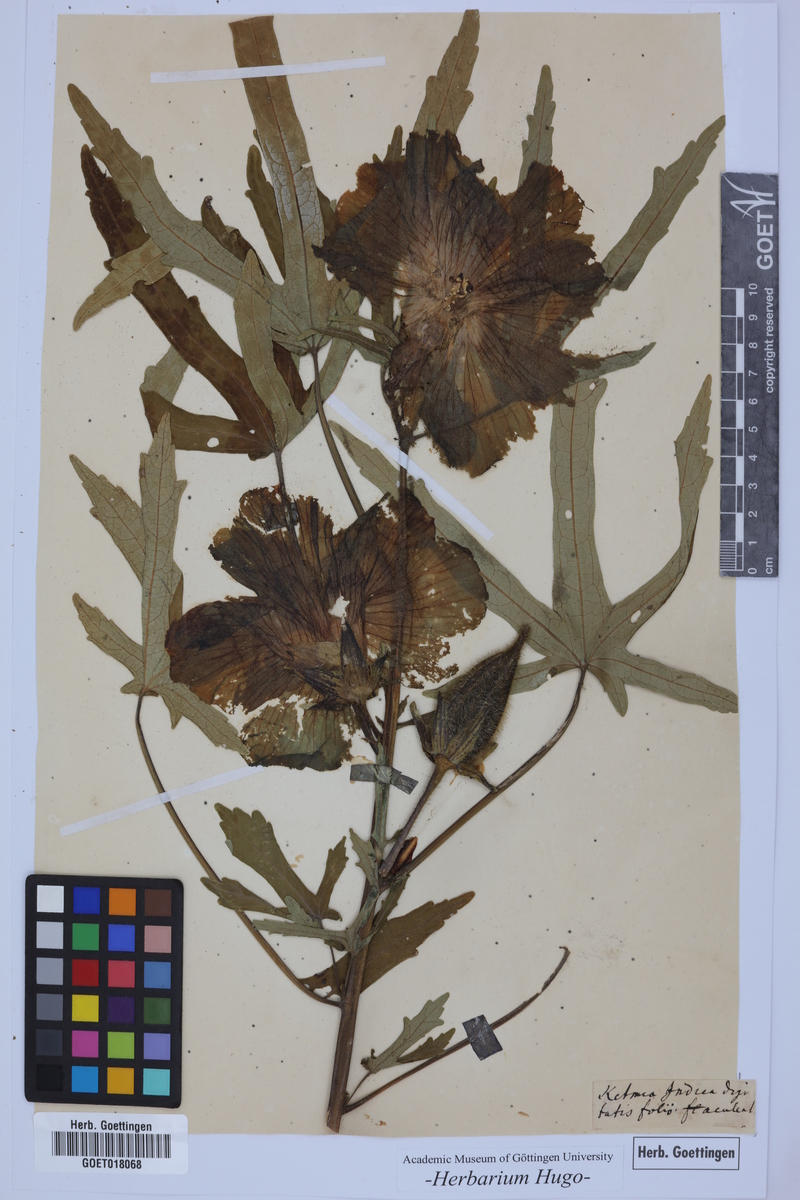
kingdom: Plantae
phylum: Tracheophyta
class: Magnoliopsida
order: Malvales
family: Malvaceae
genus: Hibiscus
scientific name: Hibiscus sabdariffa
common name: Roselle
